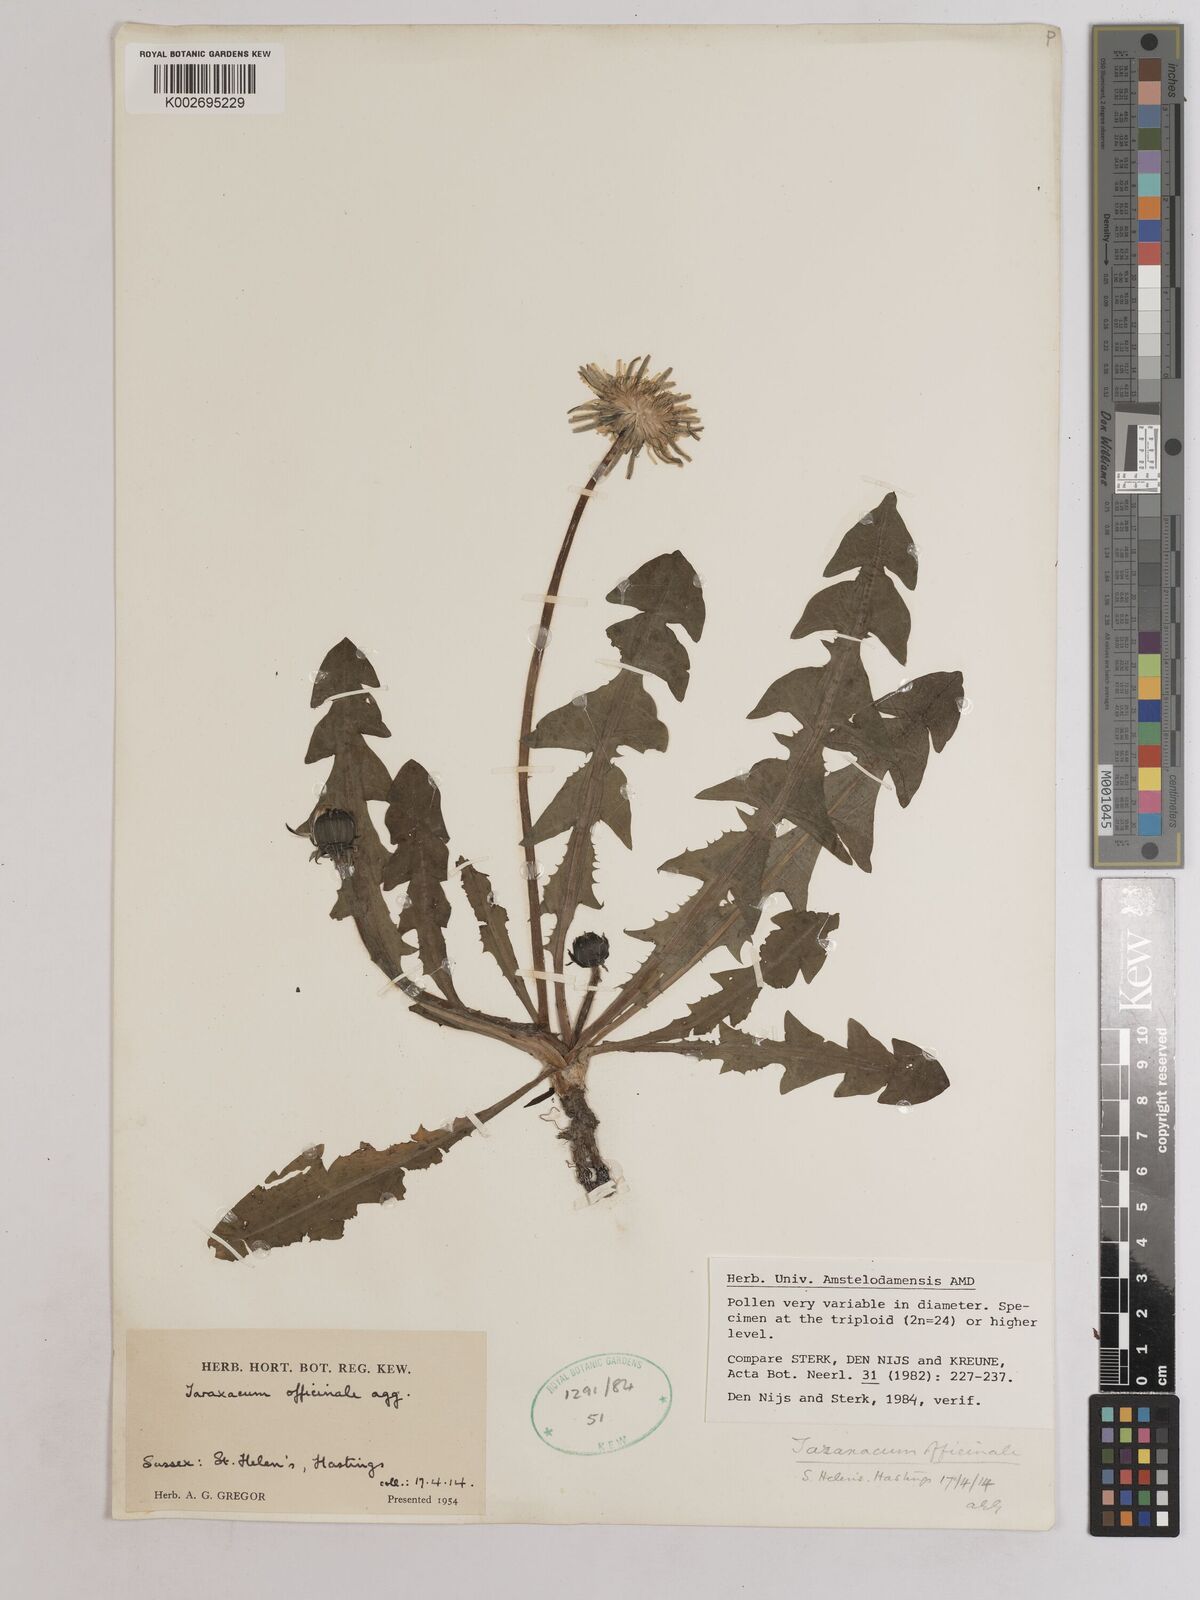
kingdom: Plantae
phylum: Tracheophyta
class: Magnoliopsida
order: Asterales
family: Asteraceae
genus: Taraxacum
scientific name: Taraxacum officinale
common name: Common dandelion
